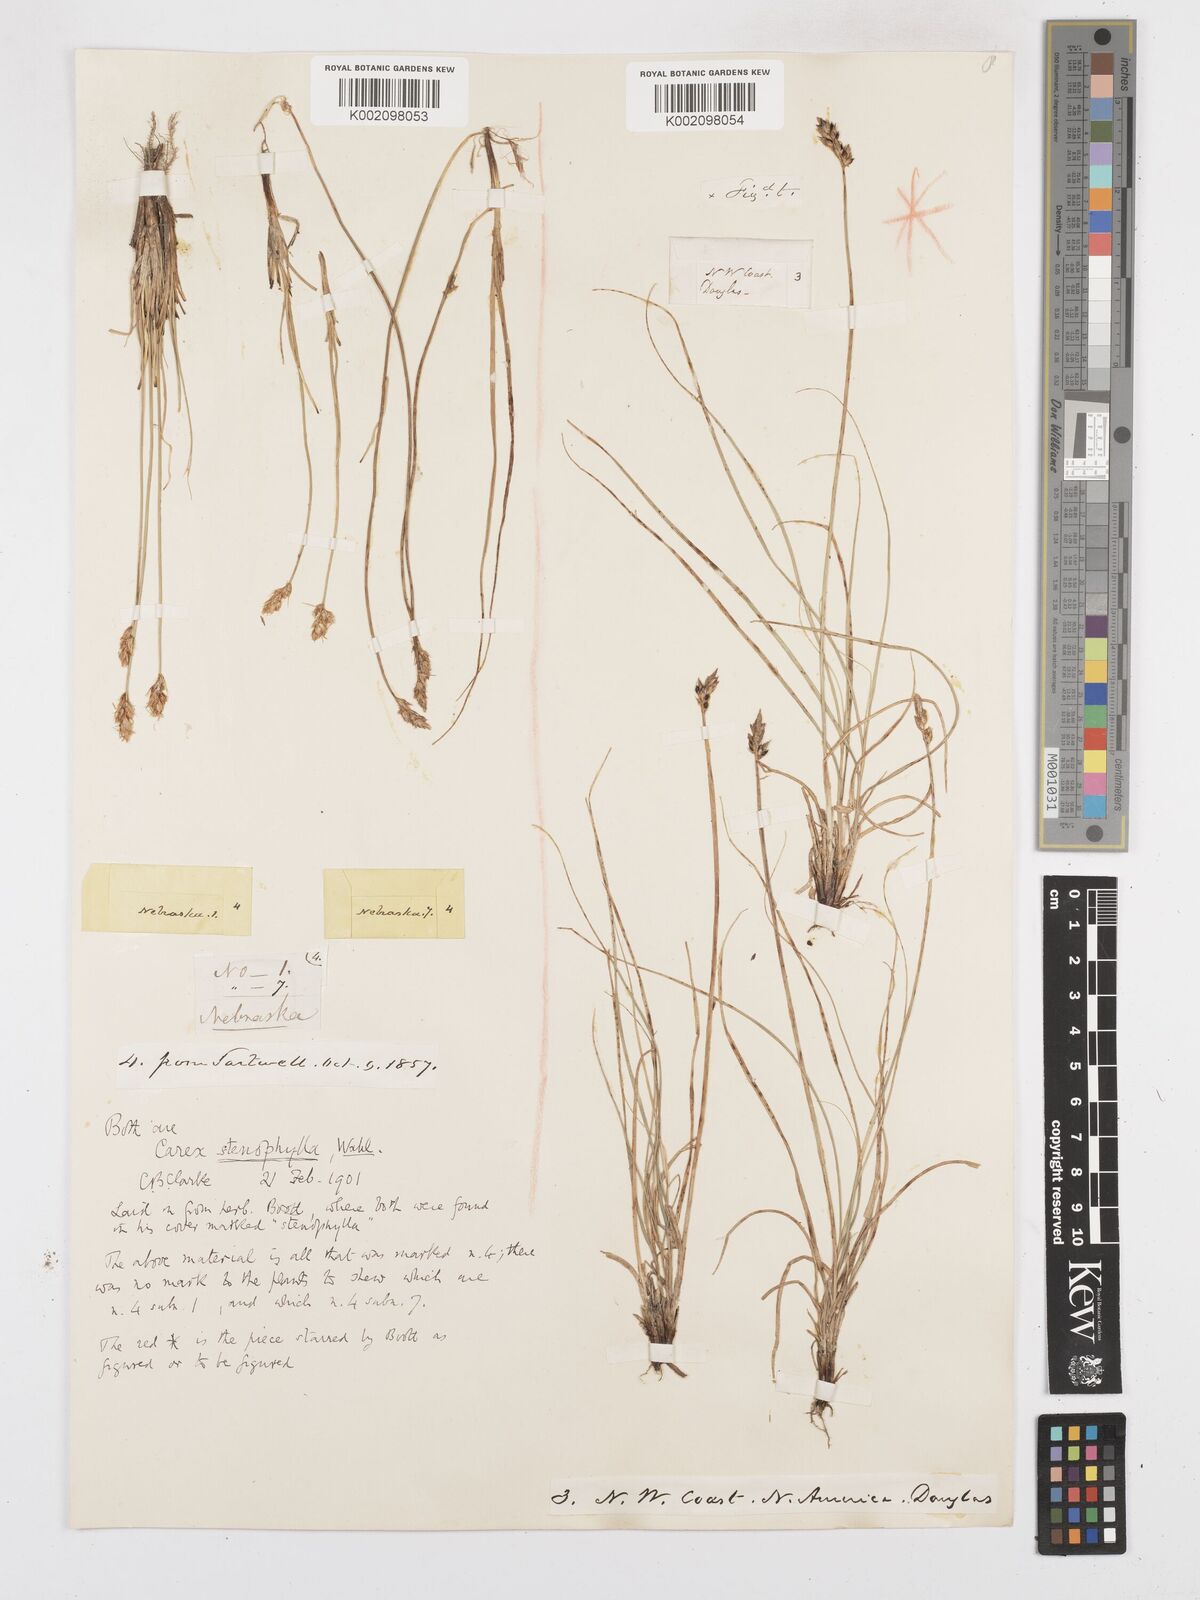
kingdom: Plantae
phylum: Tracheophyta
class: Liliopsida
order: Poales
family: Cyperaceae
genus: Carex
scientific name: Carex duriuscula
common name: Involute-leaved sedge
